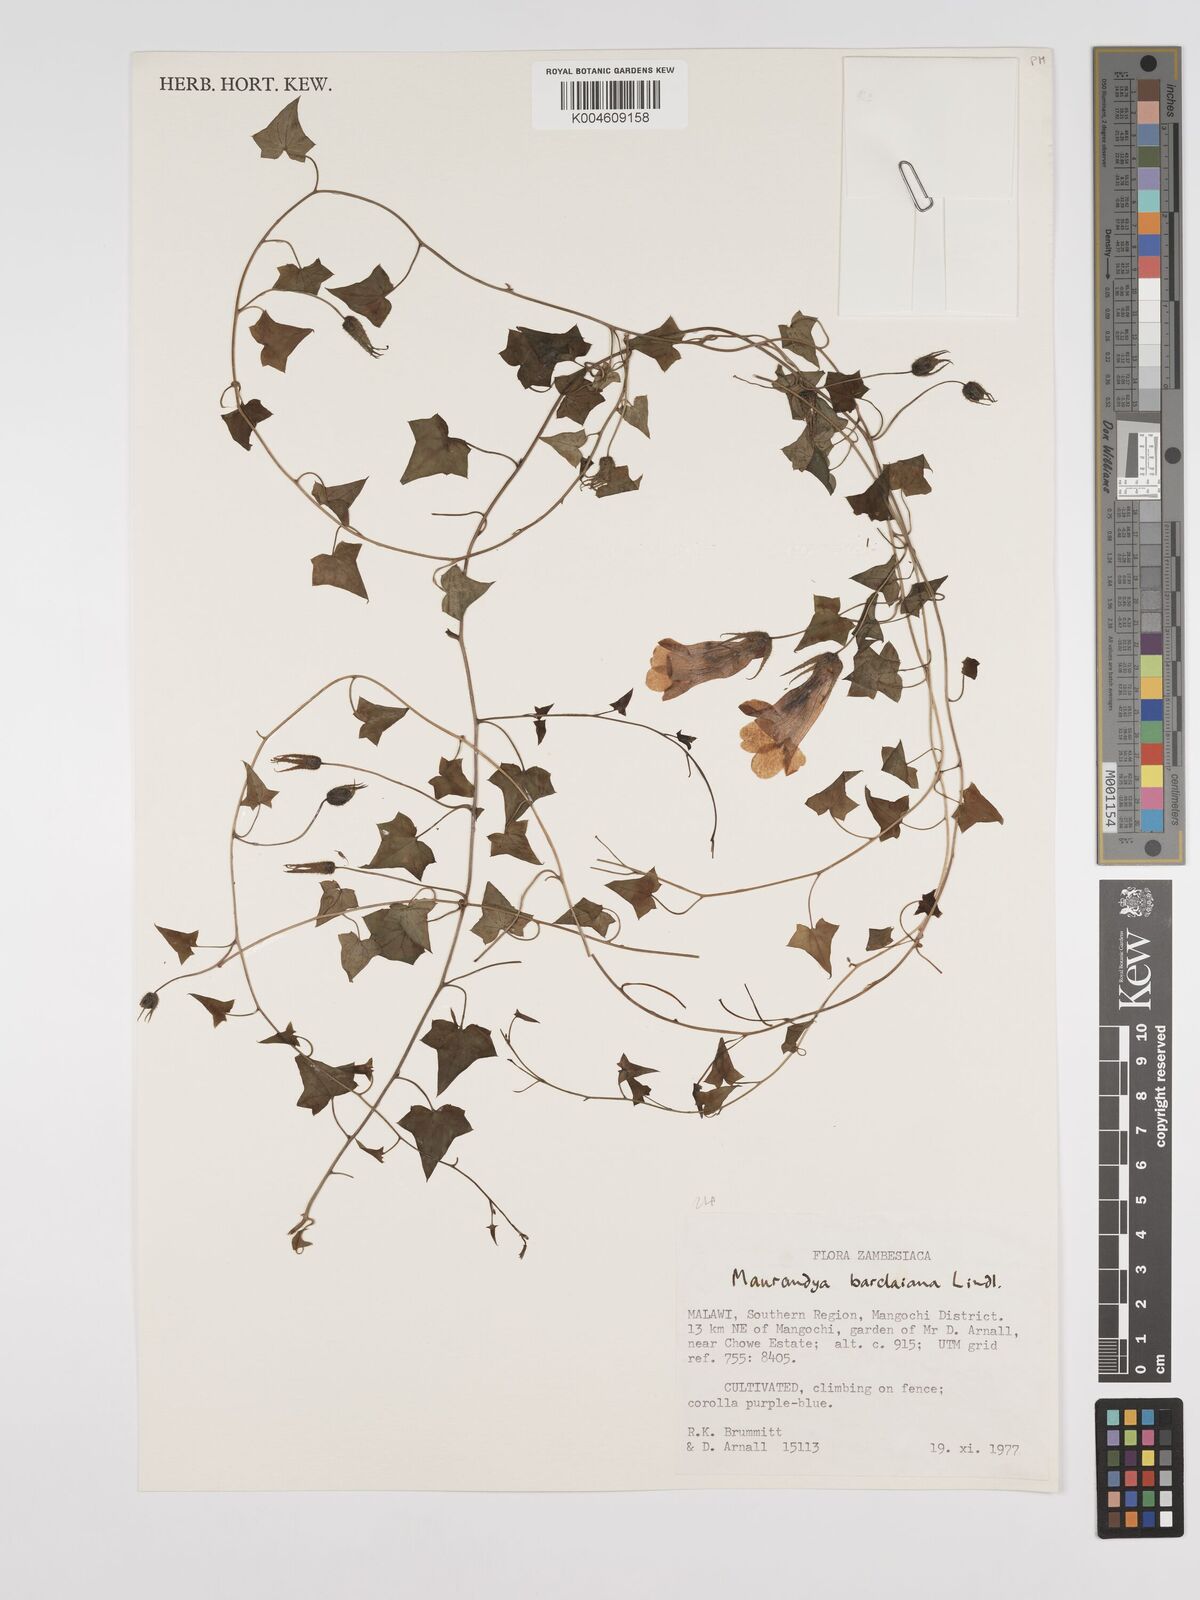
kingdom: Plantae
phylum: Tracheophyta
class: Magnoliopsida
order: Lamiales
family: Plantaginaceae
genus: Maurandya
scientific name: Maurandya barclayana
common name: Mexican viper
